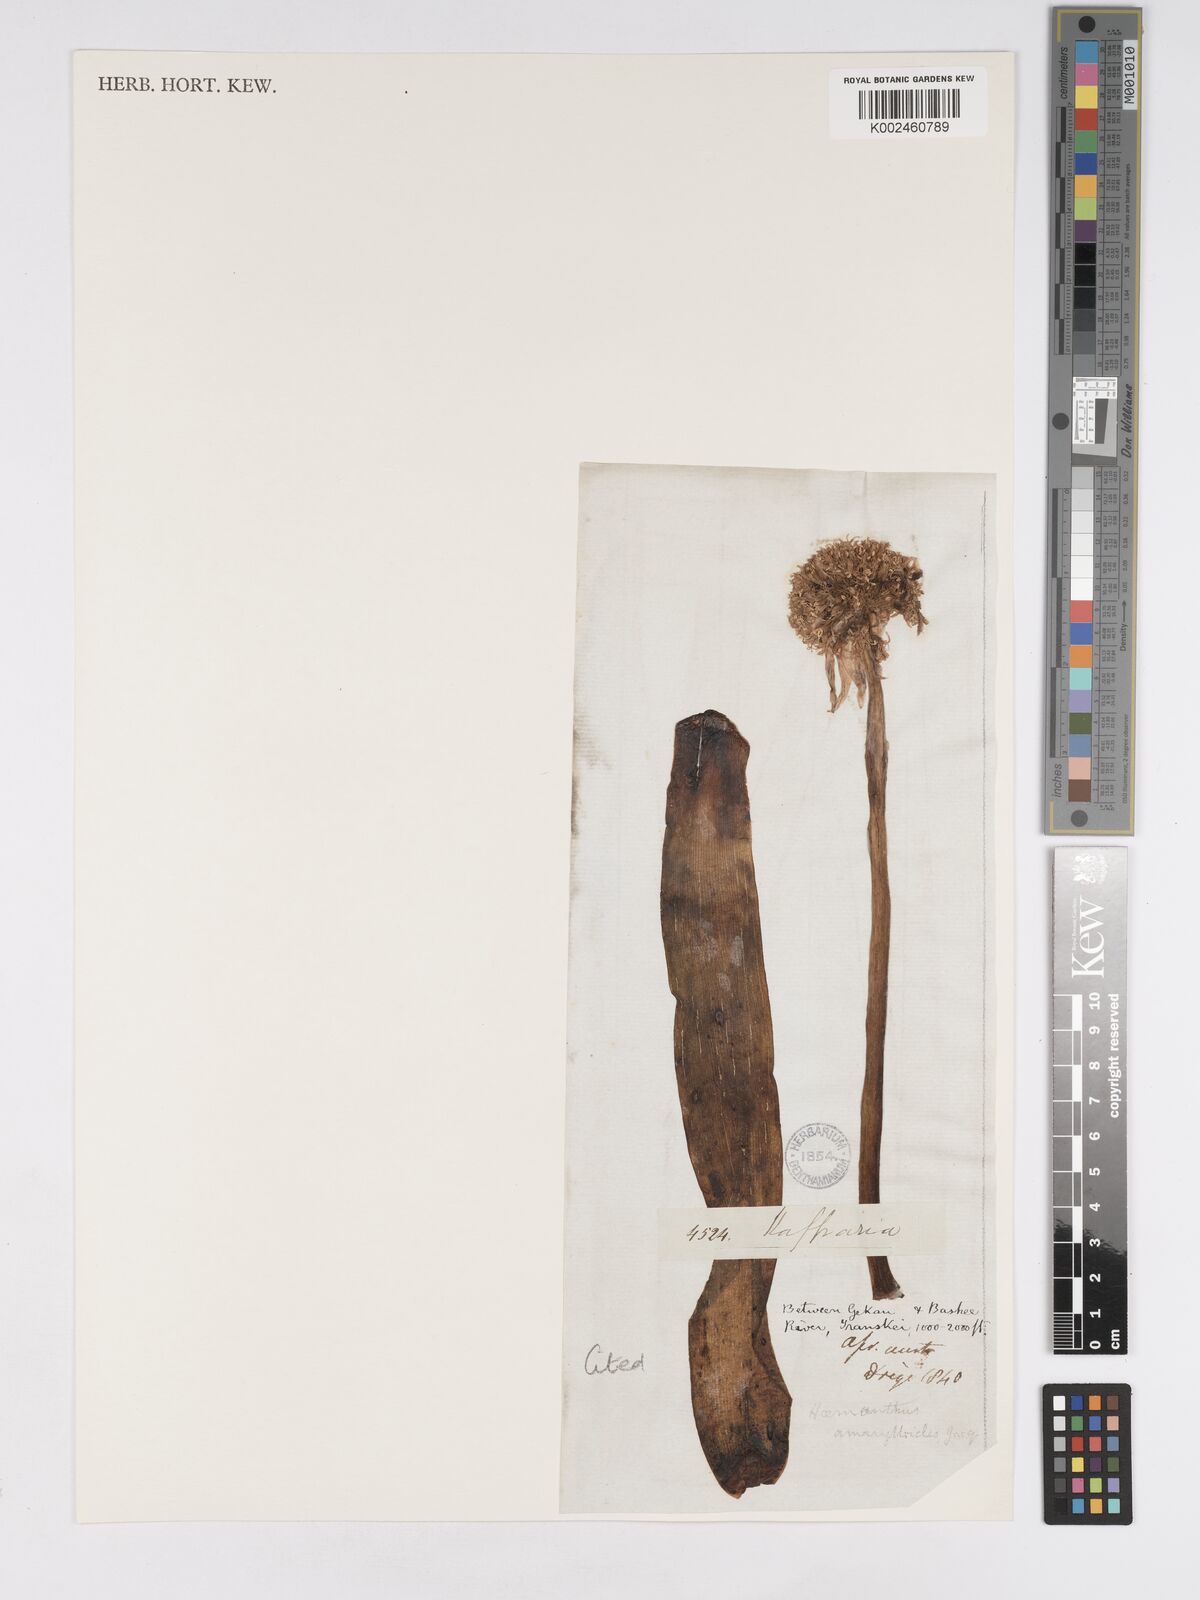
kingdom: Plantae
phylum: Tracheophyta
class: Liliopsida
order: Asparagales
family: Amaryllidaceae
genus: Haemanthus
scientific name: Haemanthus montanus
